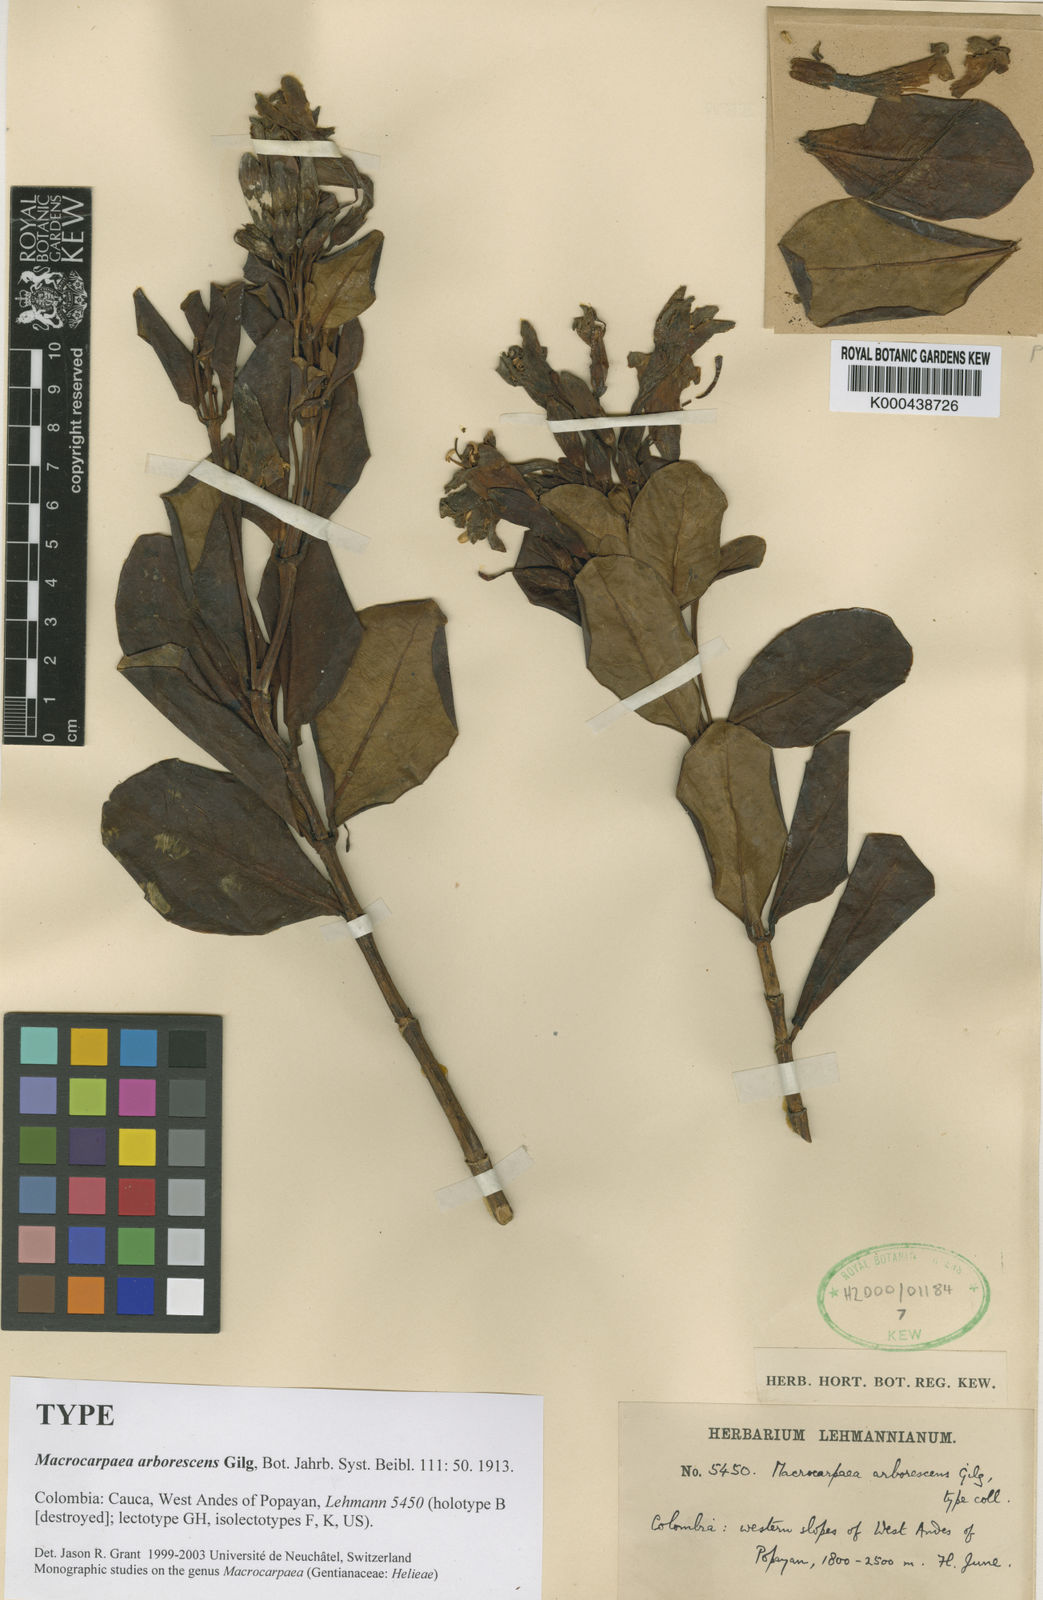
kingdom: Plantae
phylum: Tracheophyta
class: Magnoliopsida
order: Gentianales
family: Gentianaceae
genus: Macrocarpaea
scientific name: Macrocarpaea ovalis
